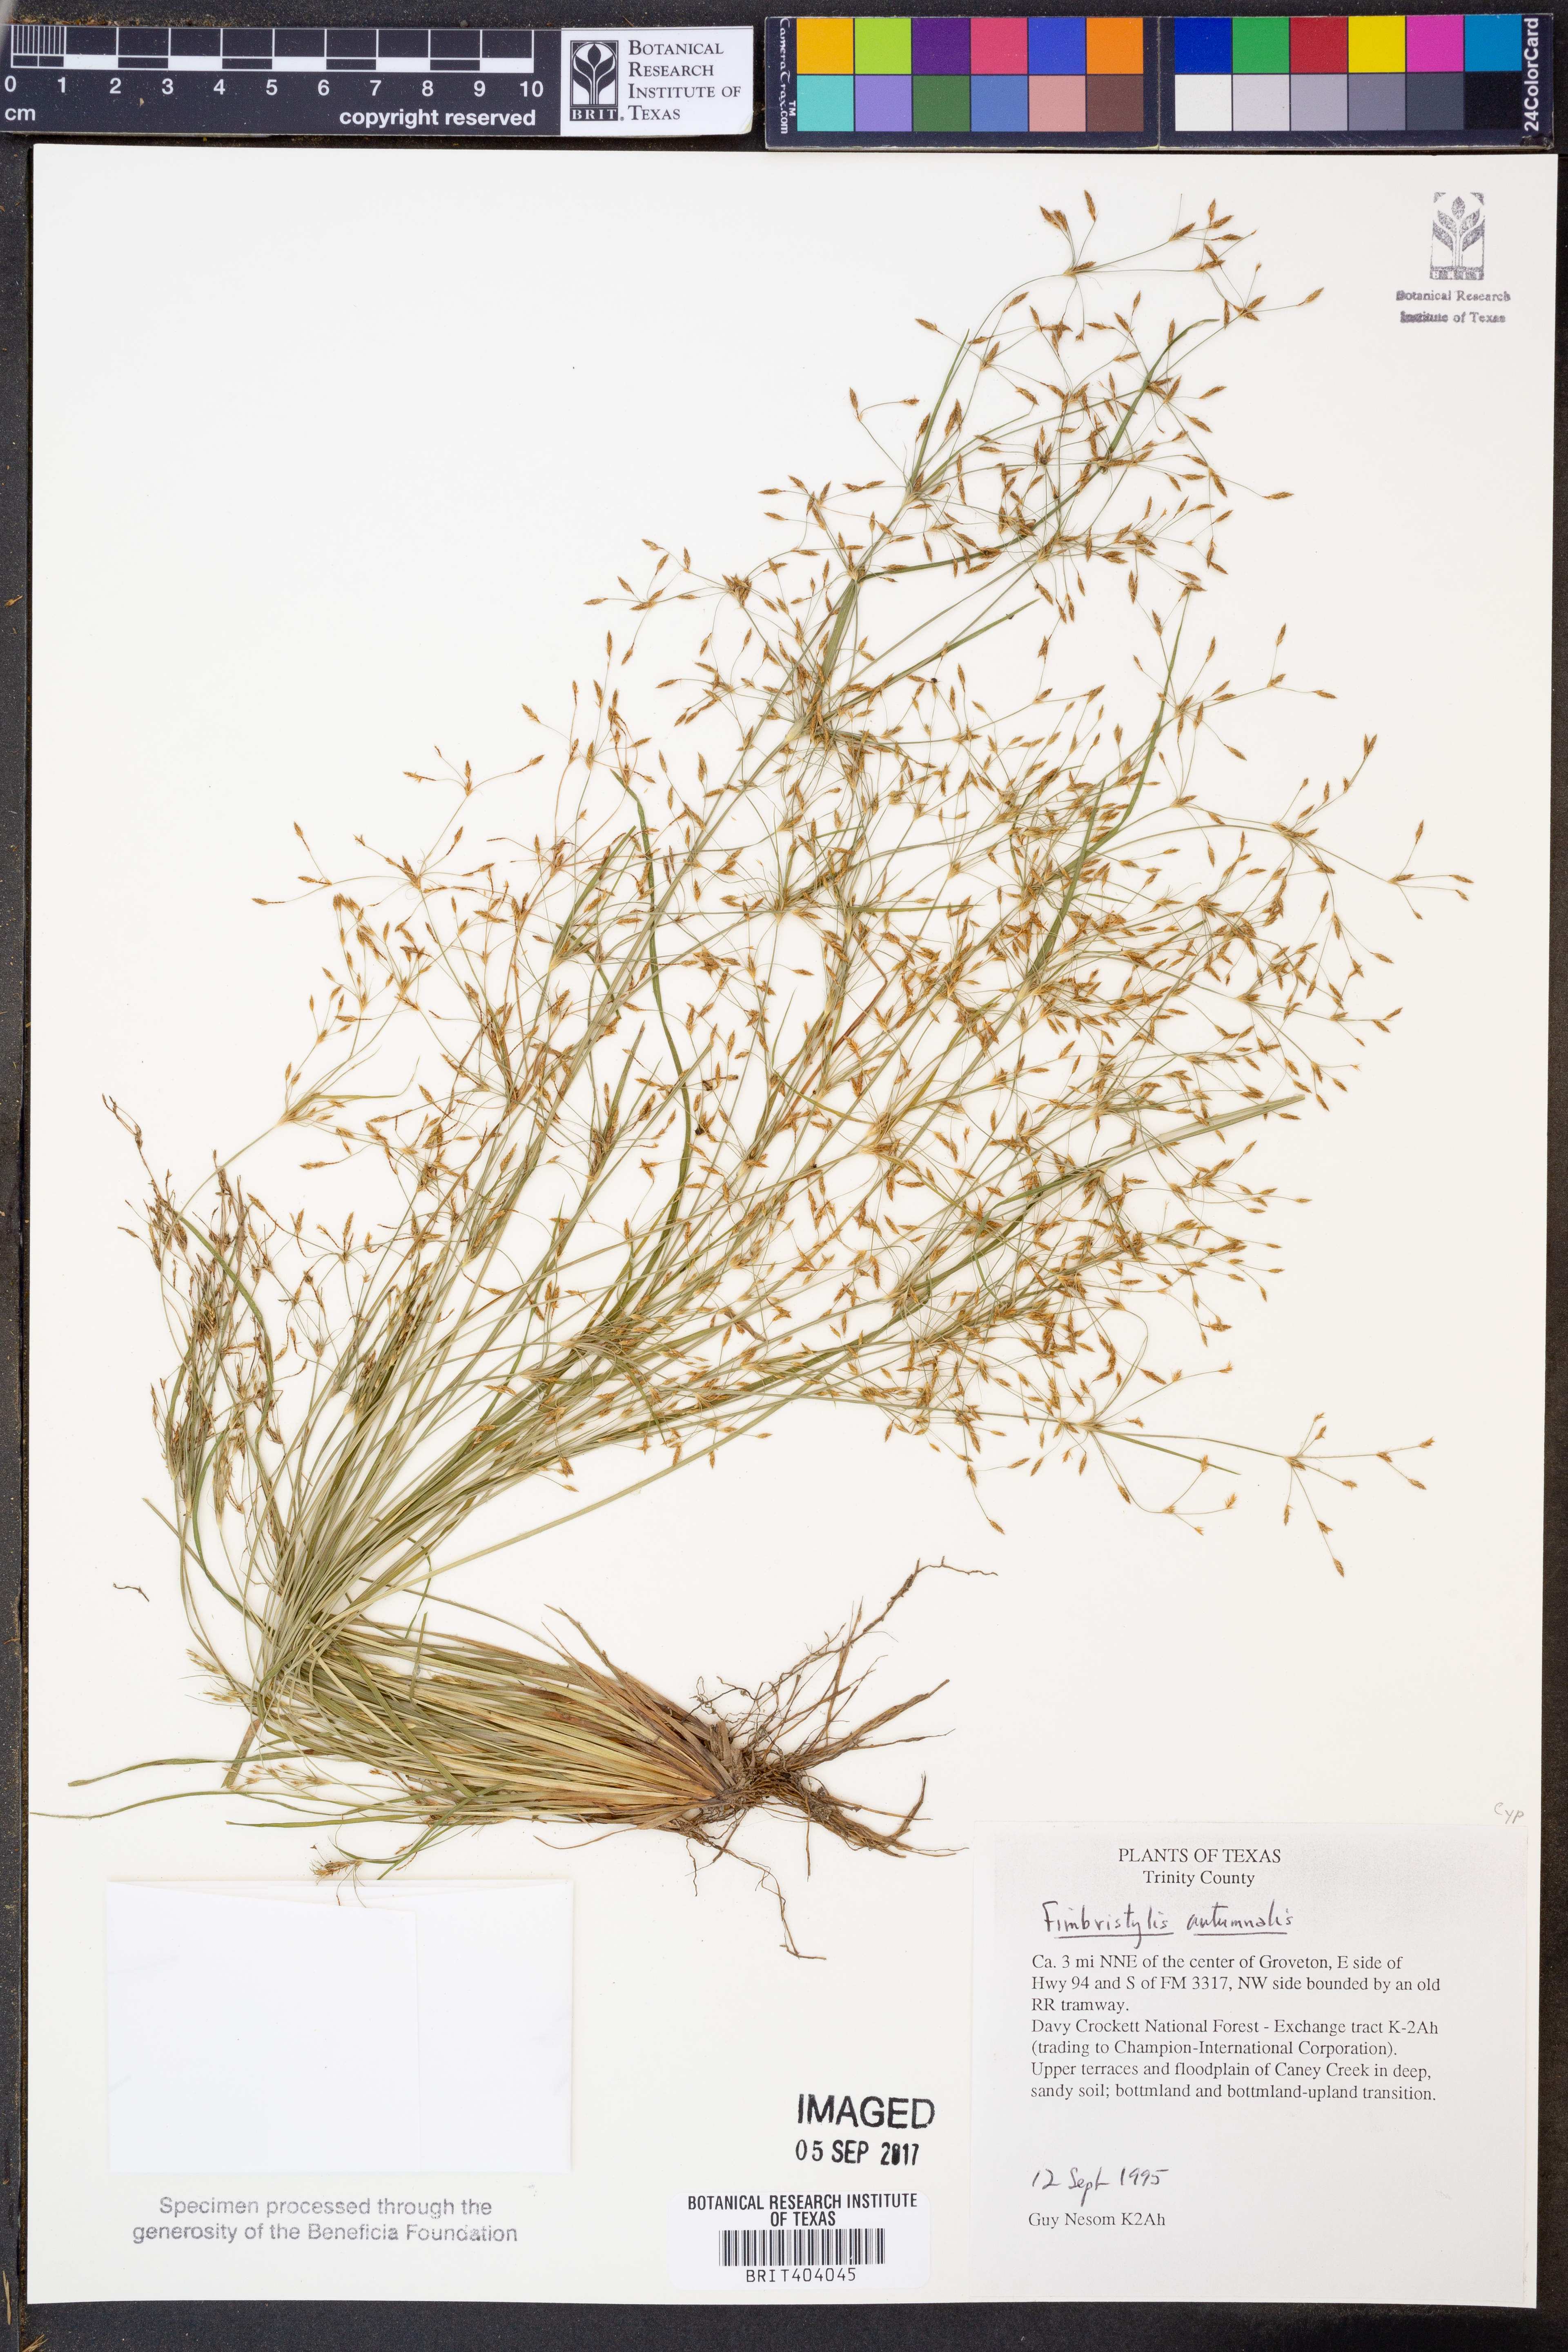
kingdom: Plantae
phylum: Tracheophyta
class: Liliopsida
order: Poales
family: Cyperaceae
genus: Fimbristylis
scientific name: Fimbristylis autumnalis
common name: Slender fimbristylis
